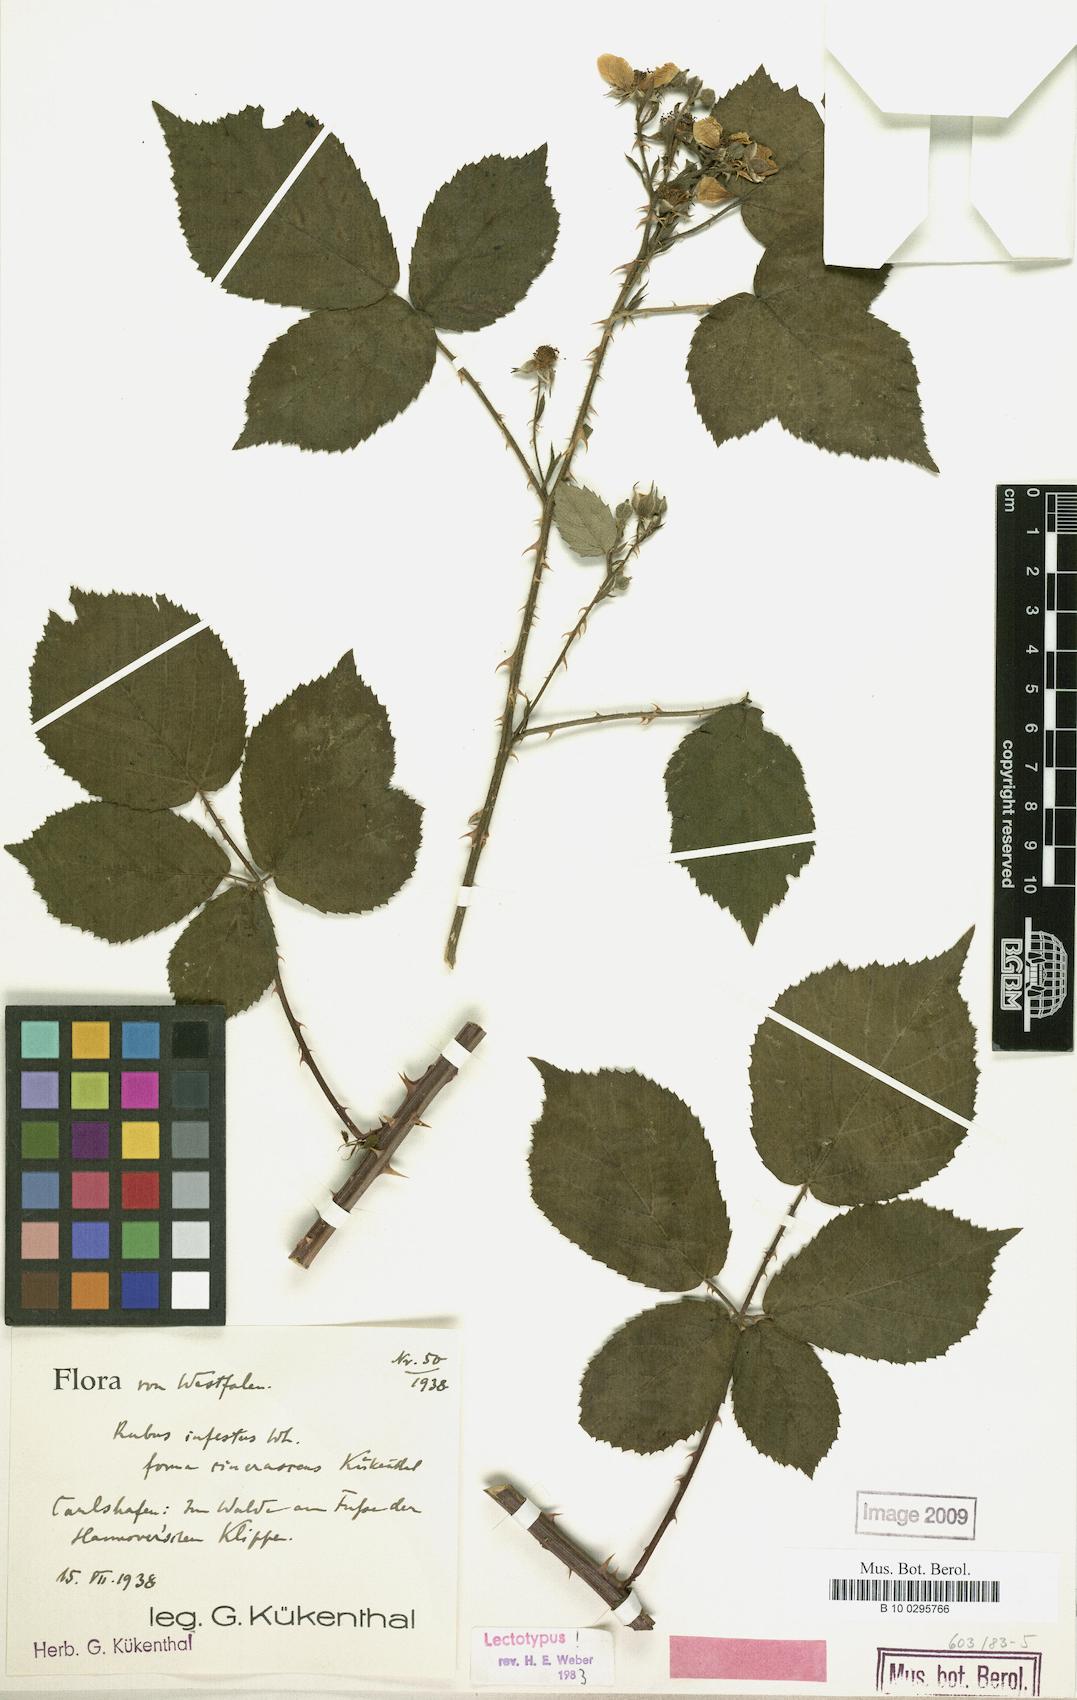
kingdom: Plantae
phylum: Tracheophyta
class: Magnoliopsida
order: Rosales
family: Rosaceae
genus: Rubus
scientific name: Rubus infestus
